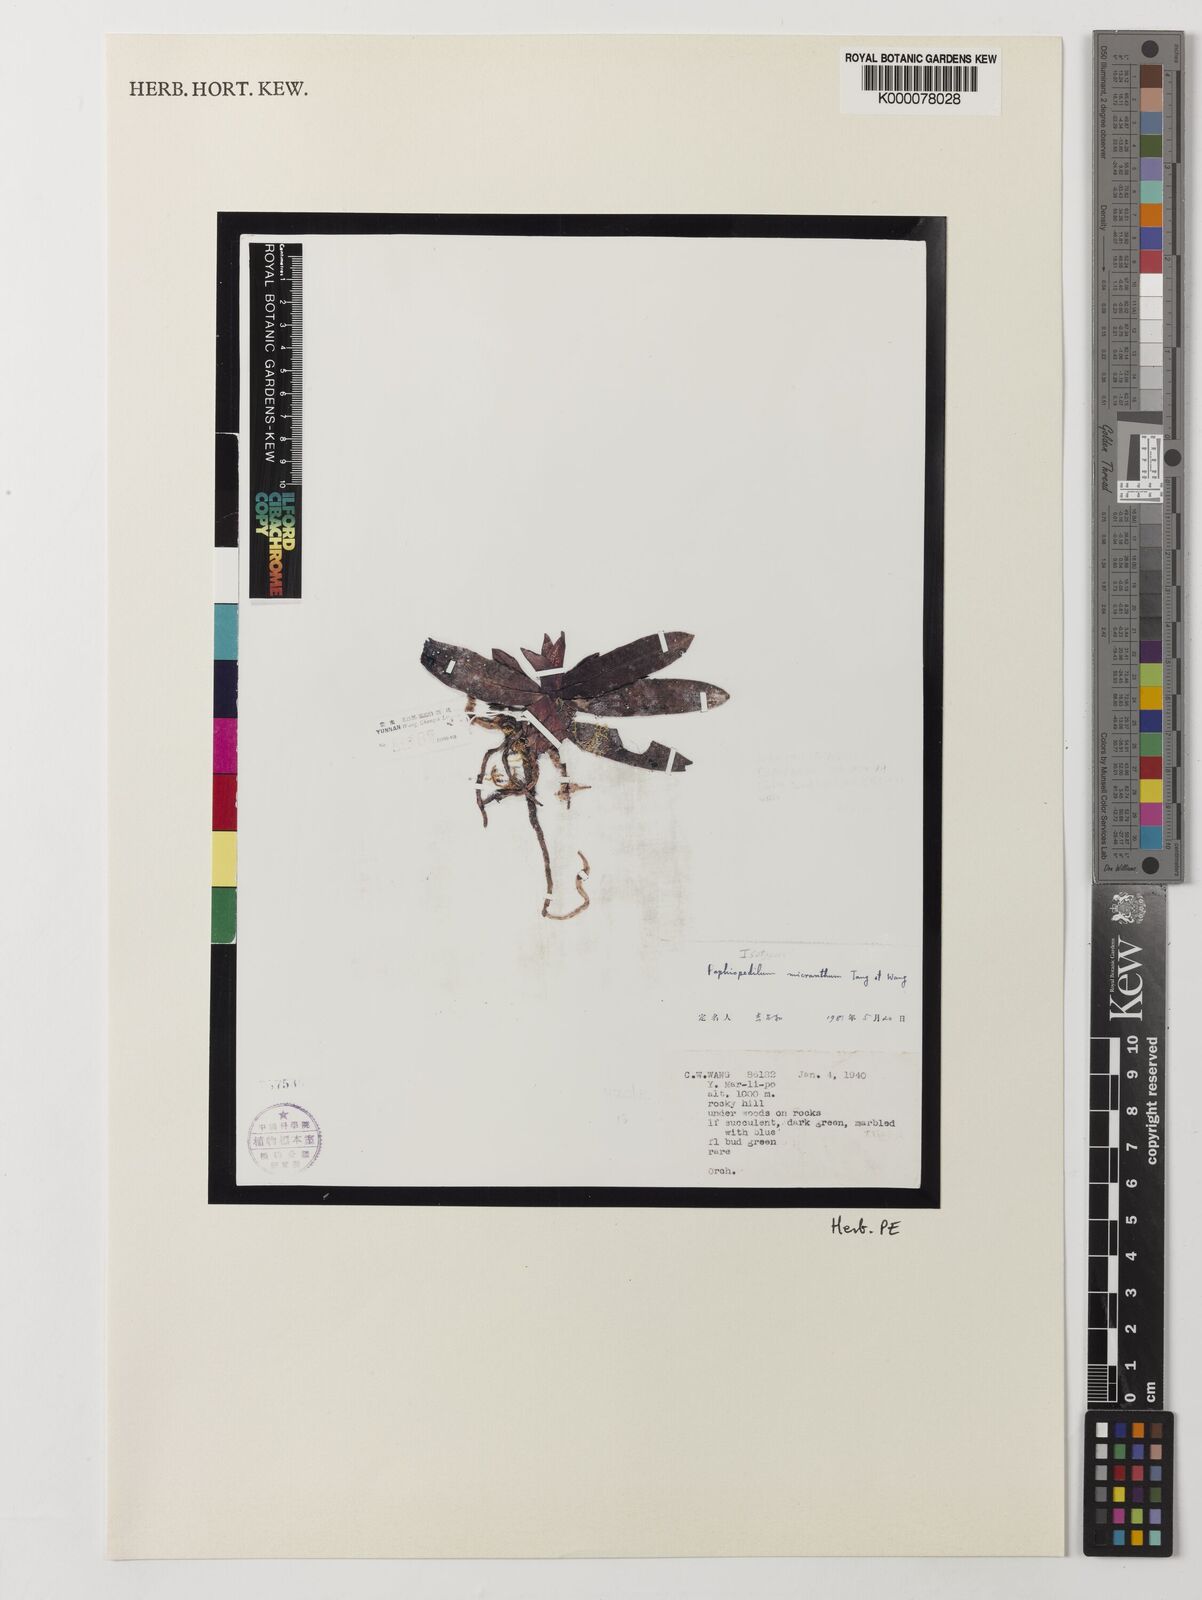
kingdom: Plantae
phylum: Tracheophyta
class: Liliopsida
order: Asparagales
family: Orchidaceae
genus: Paphiopedilum
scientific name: Paphiopedilum micranthum
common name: Tiny flowered paphiopedilum
